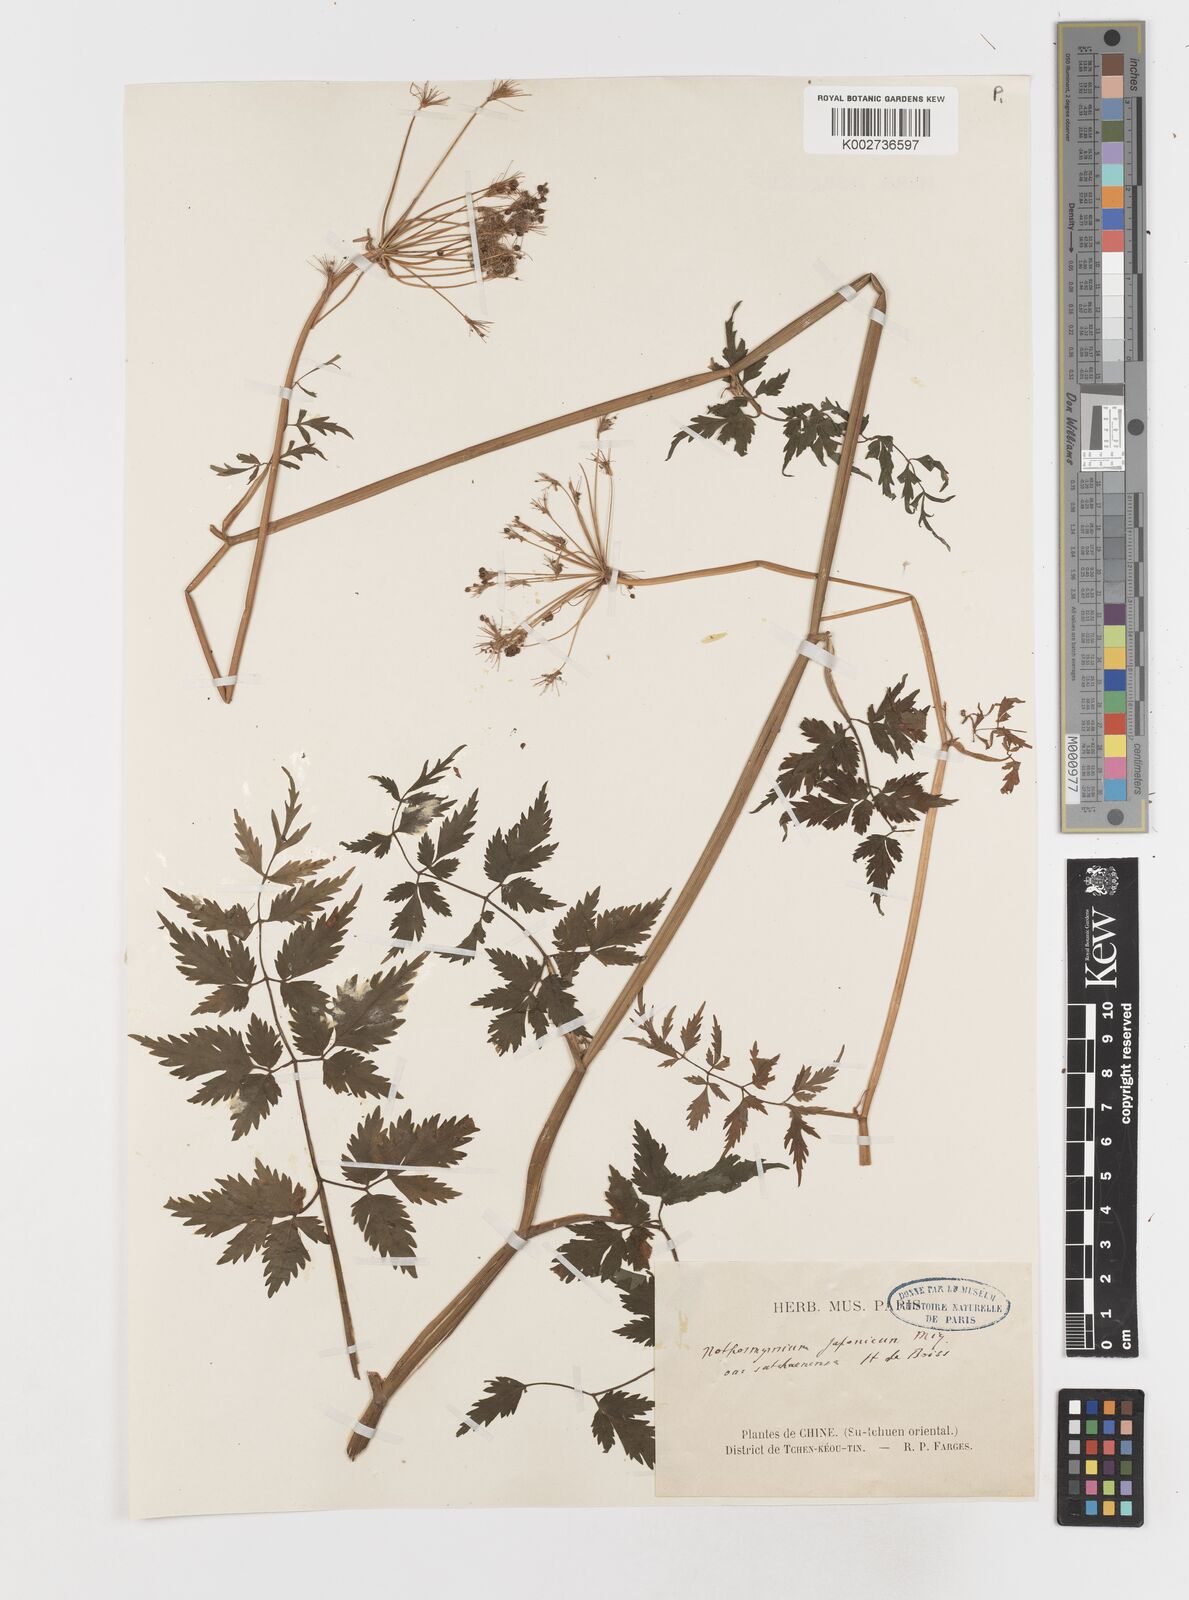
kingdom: Plantae
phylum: Tracheophyta
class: Magnoliopsida
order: Apiales
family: Apiaceae
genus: Nothosmyrnium
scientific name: Nothosmyrnium japonicum
